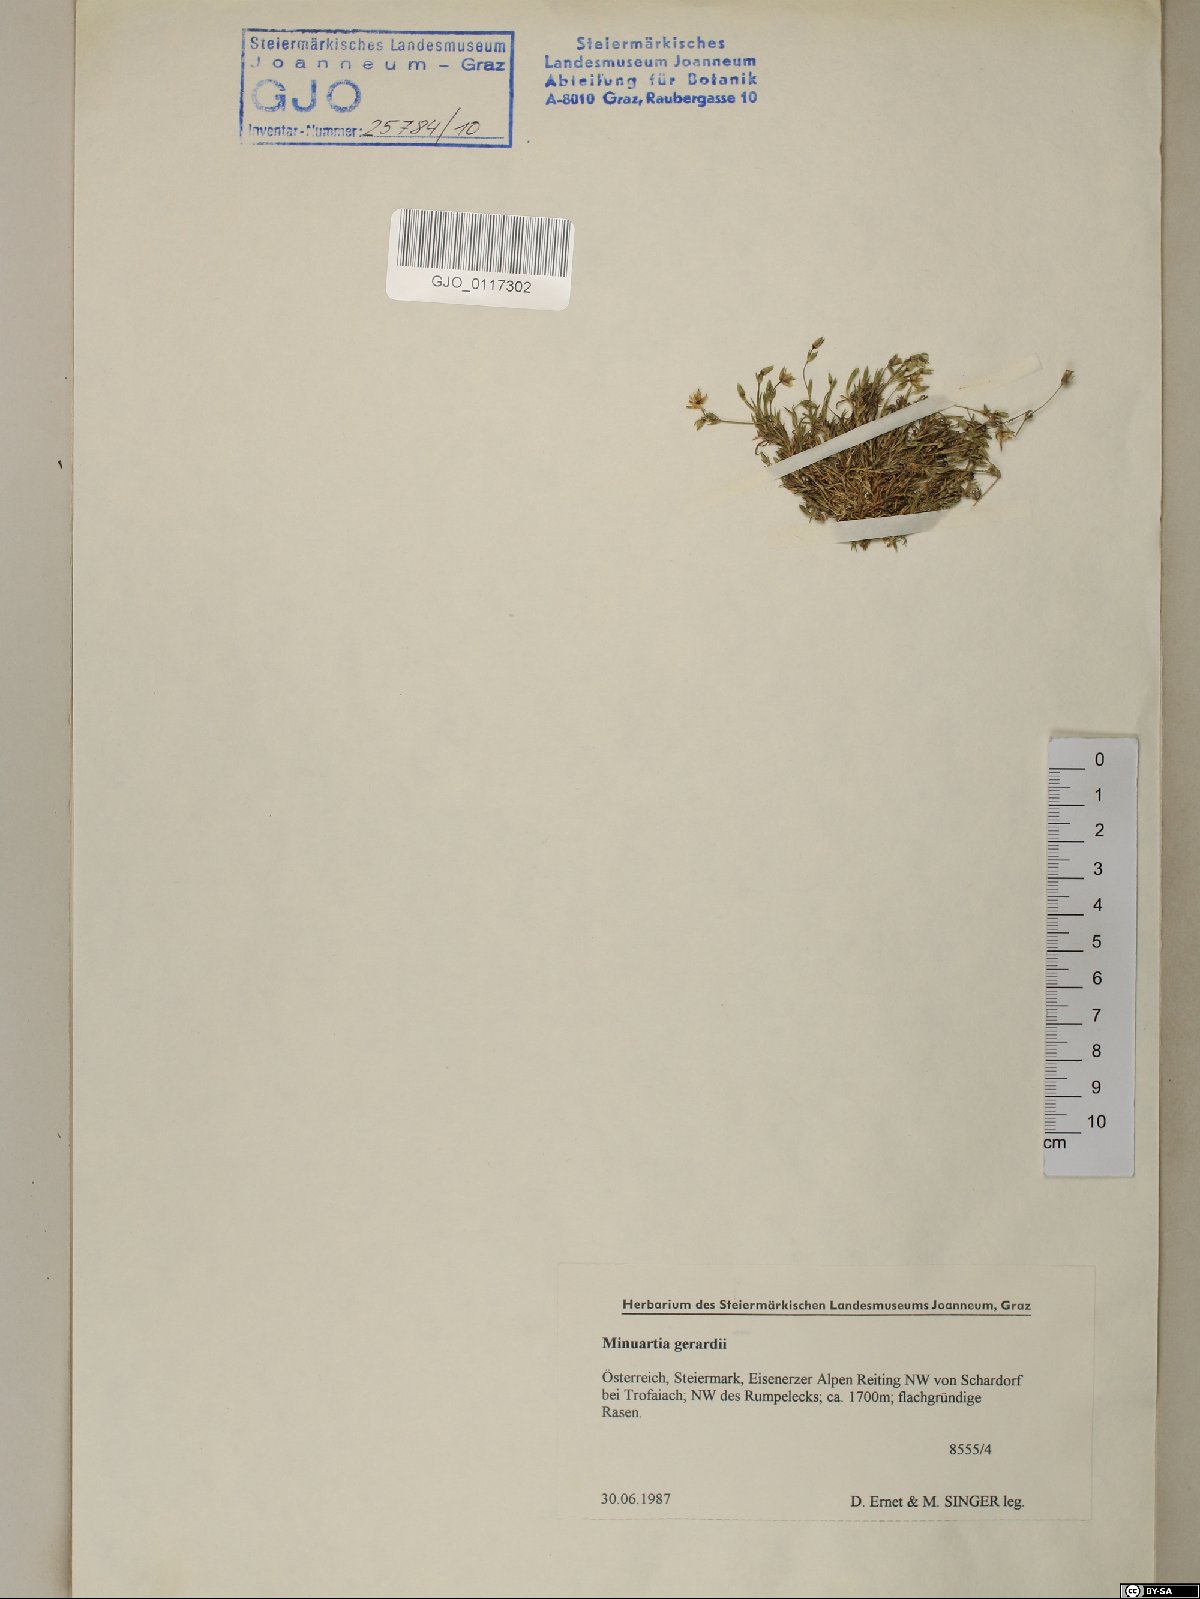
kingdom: Plantae
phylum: Tracheophyta
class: Magnoliopsida
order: Caryophyllales
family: Caryophyllaceae
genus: Sabulina
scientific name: Sabulina verna
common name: Spring sandwort
